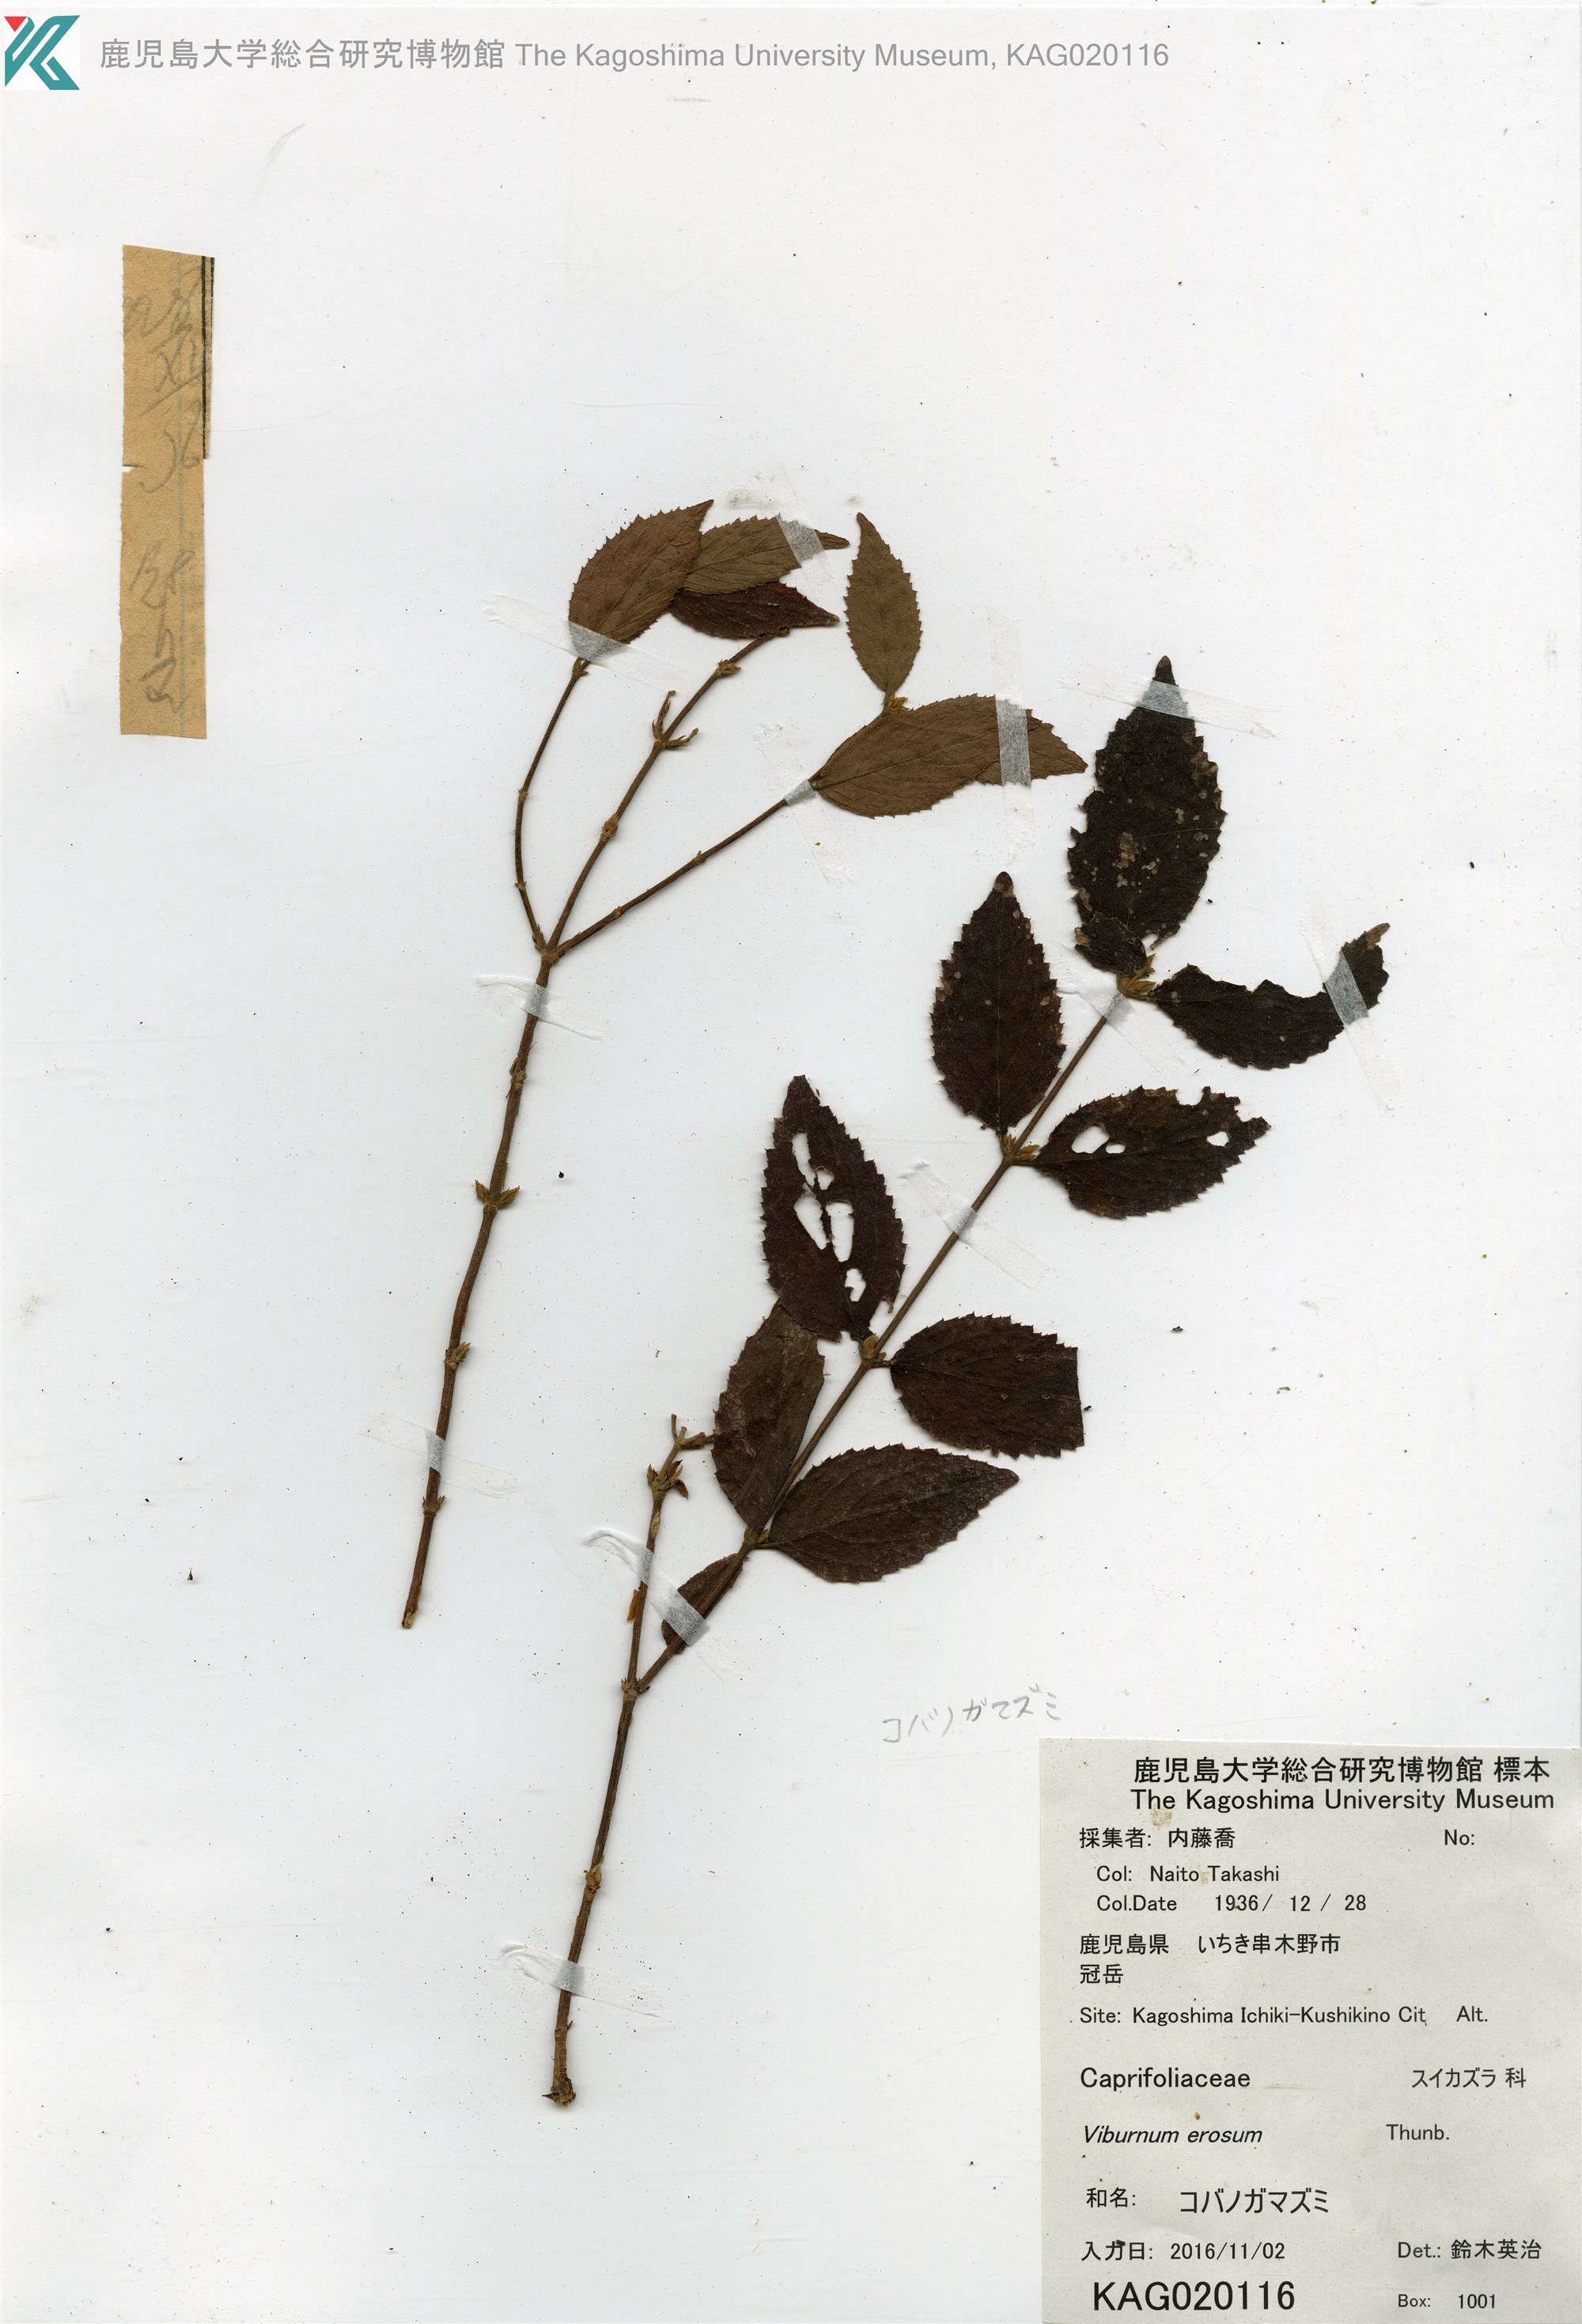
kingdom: Plantae
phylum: Tracheophyta
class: Magnoliopsida
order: Dipsacales
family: Viburnaceae
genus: Viburnum
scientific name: Viburnum erosum
